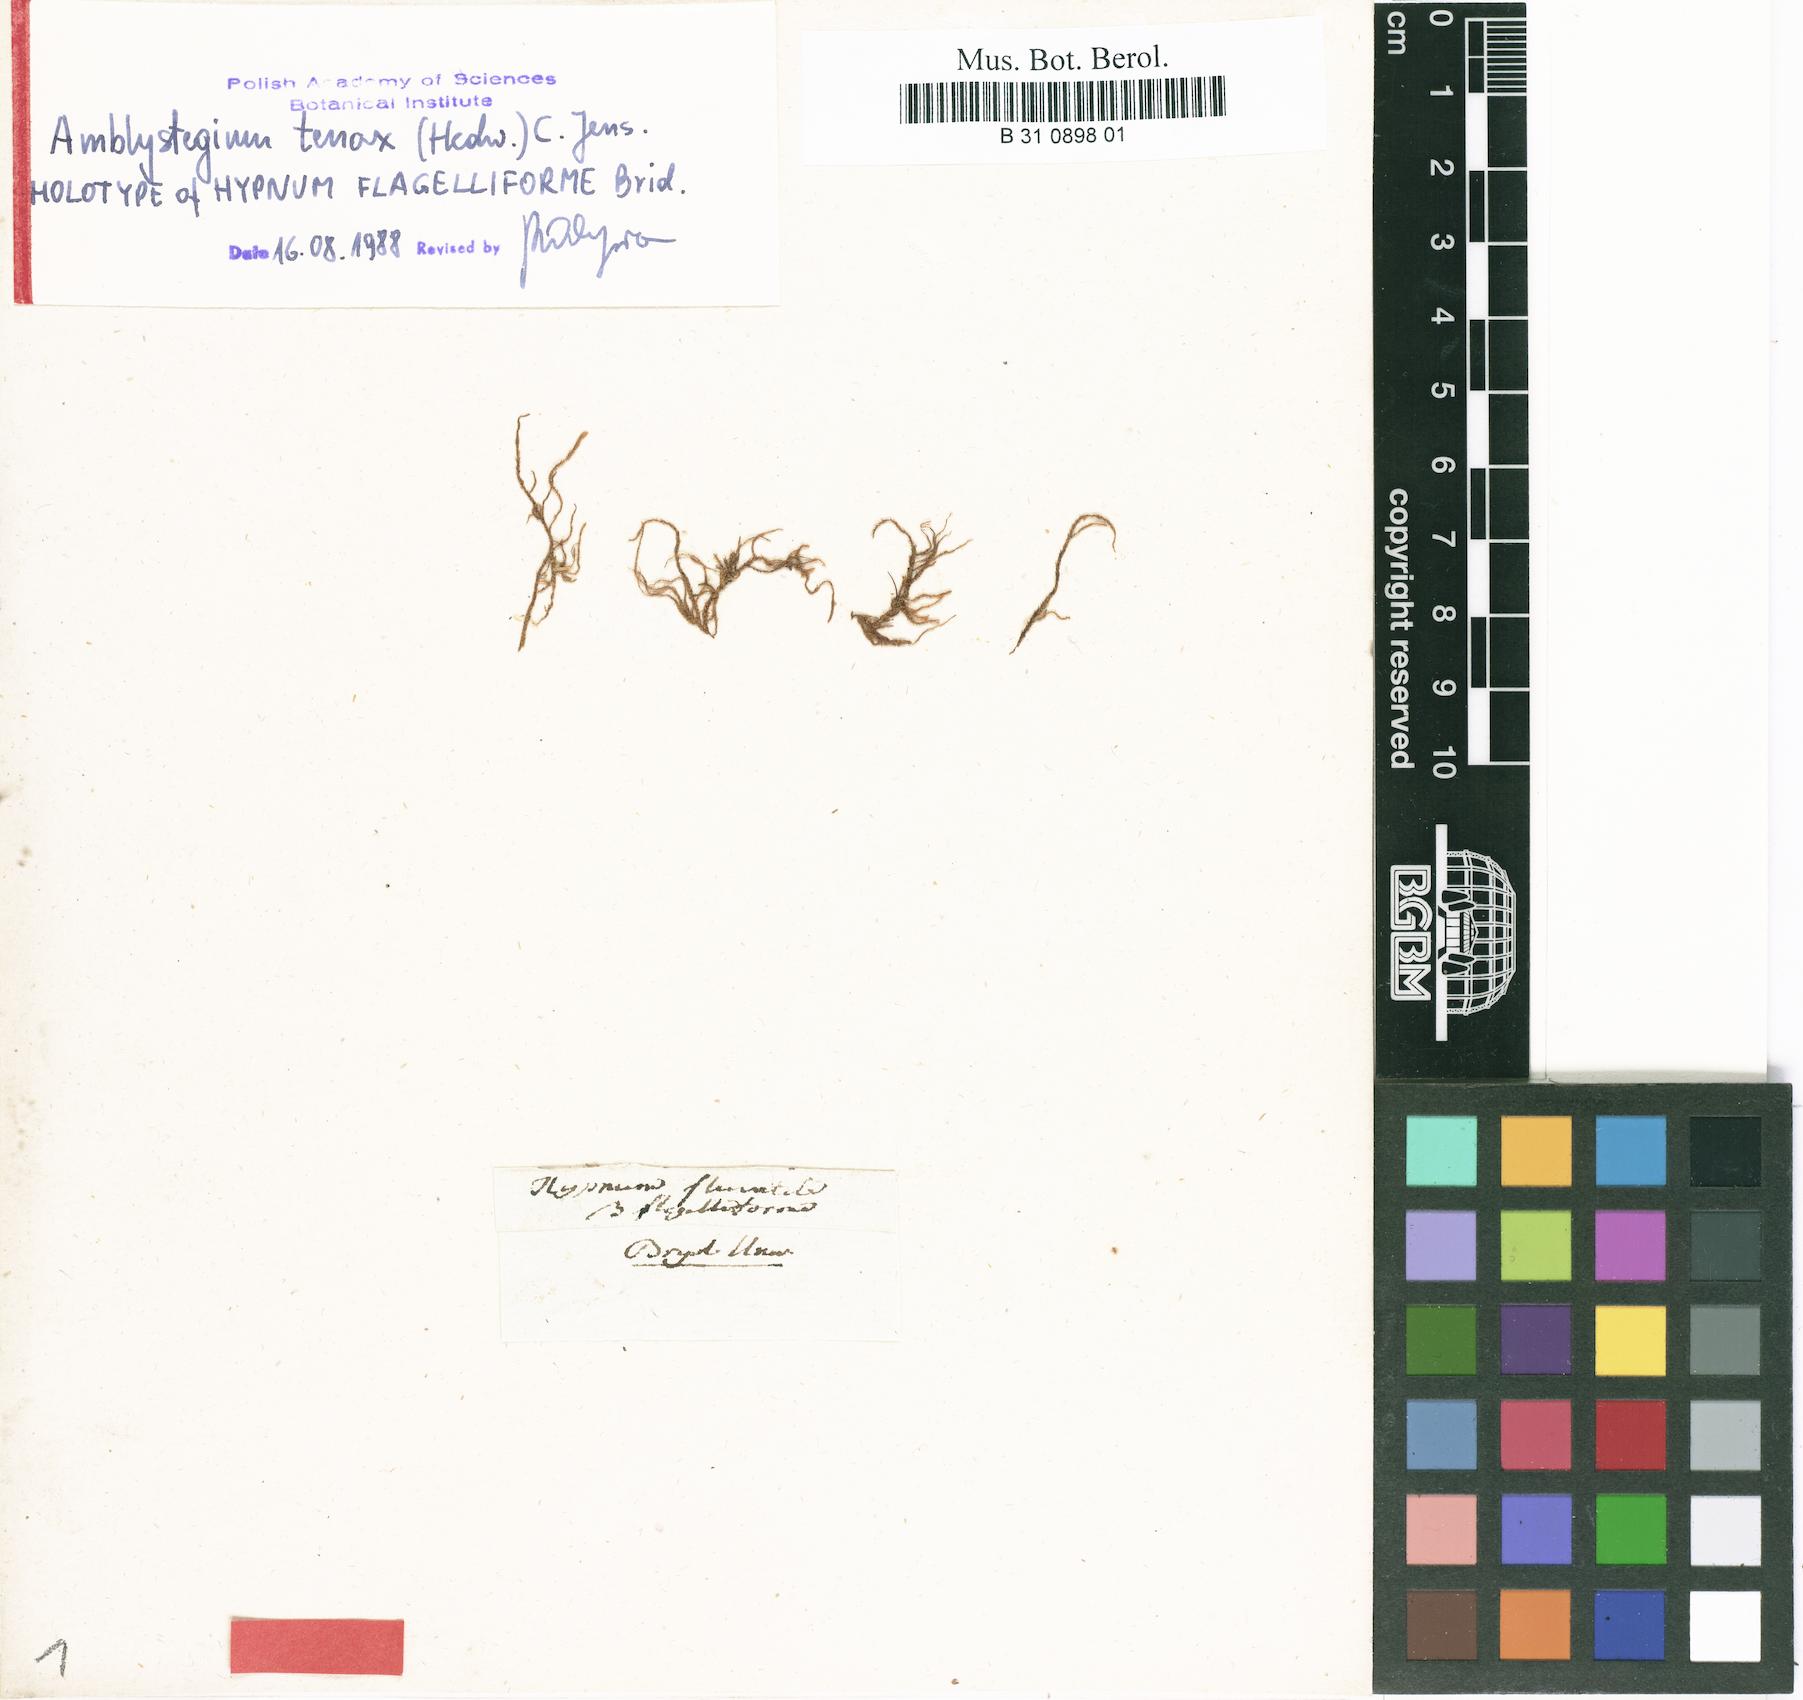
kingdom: Plantae
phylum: Bryophyta
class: Bryopsida
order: Hypnales
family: Amblystegiaceae
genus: Hygroamblystegium
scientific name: Hygroamblystegium fluviatile
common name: Brook-side feather-moss
